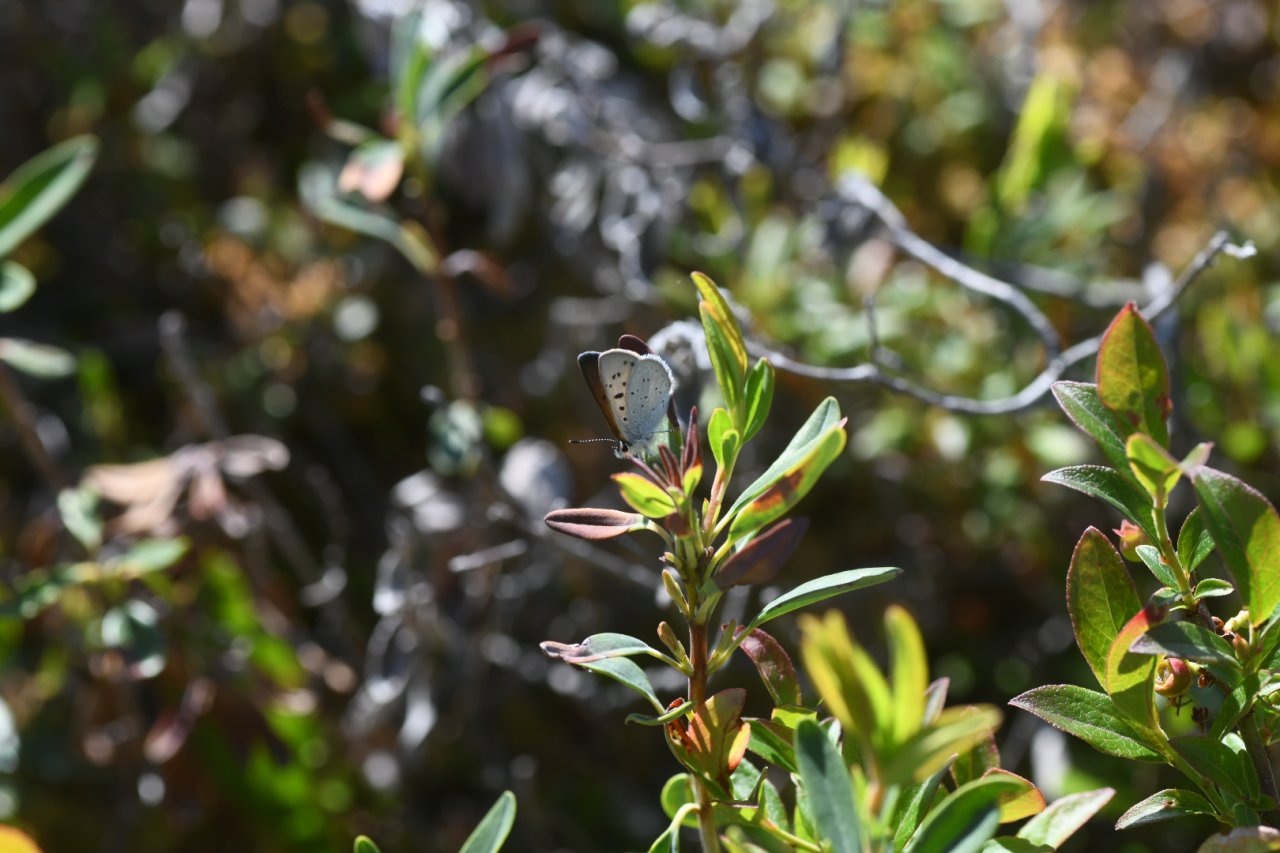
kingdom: Animalia
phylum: Arthropoda
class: Insecta
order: Lepidoptera
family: Sesiidae
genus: Sesia
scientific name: Sesia Lycaena epixanthe
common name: Bog Copper
